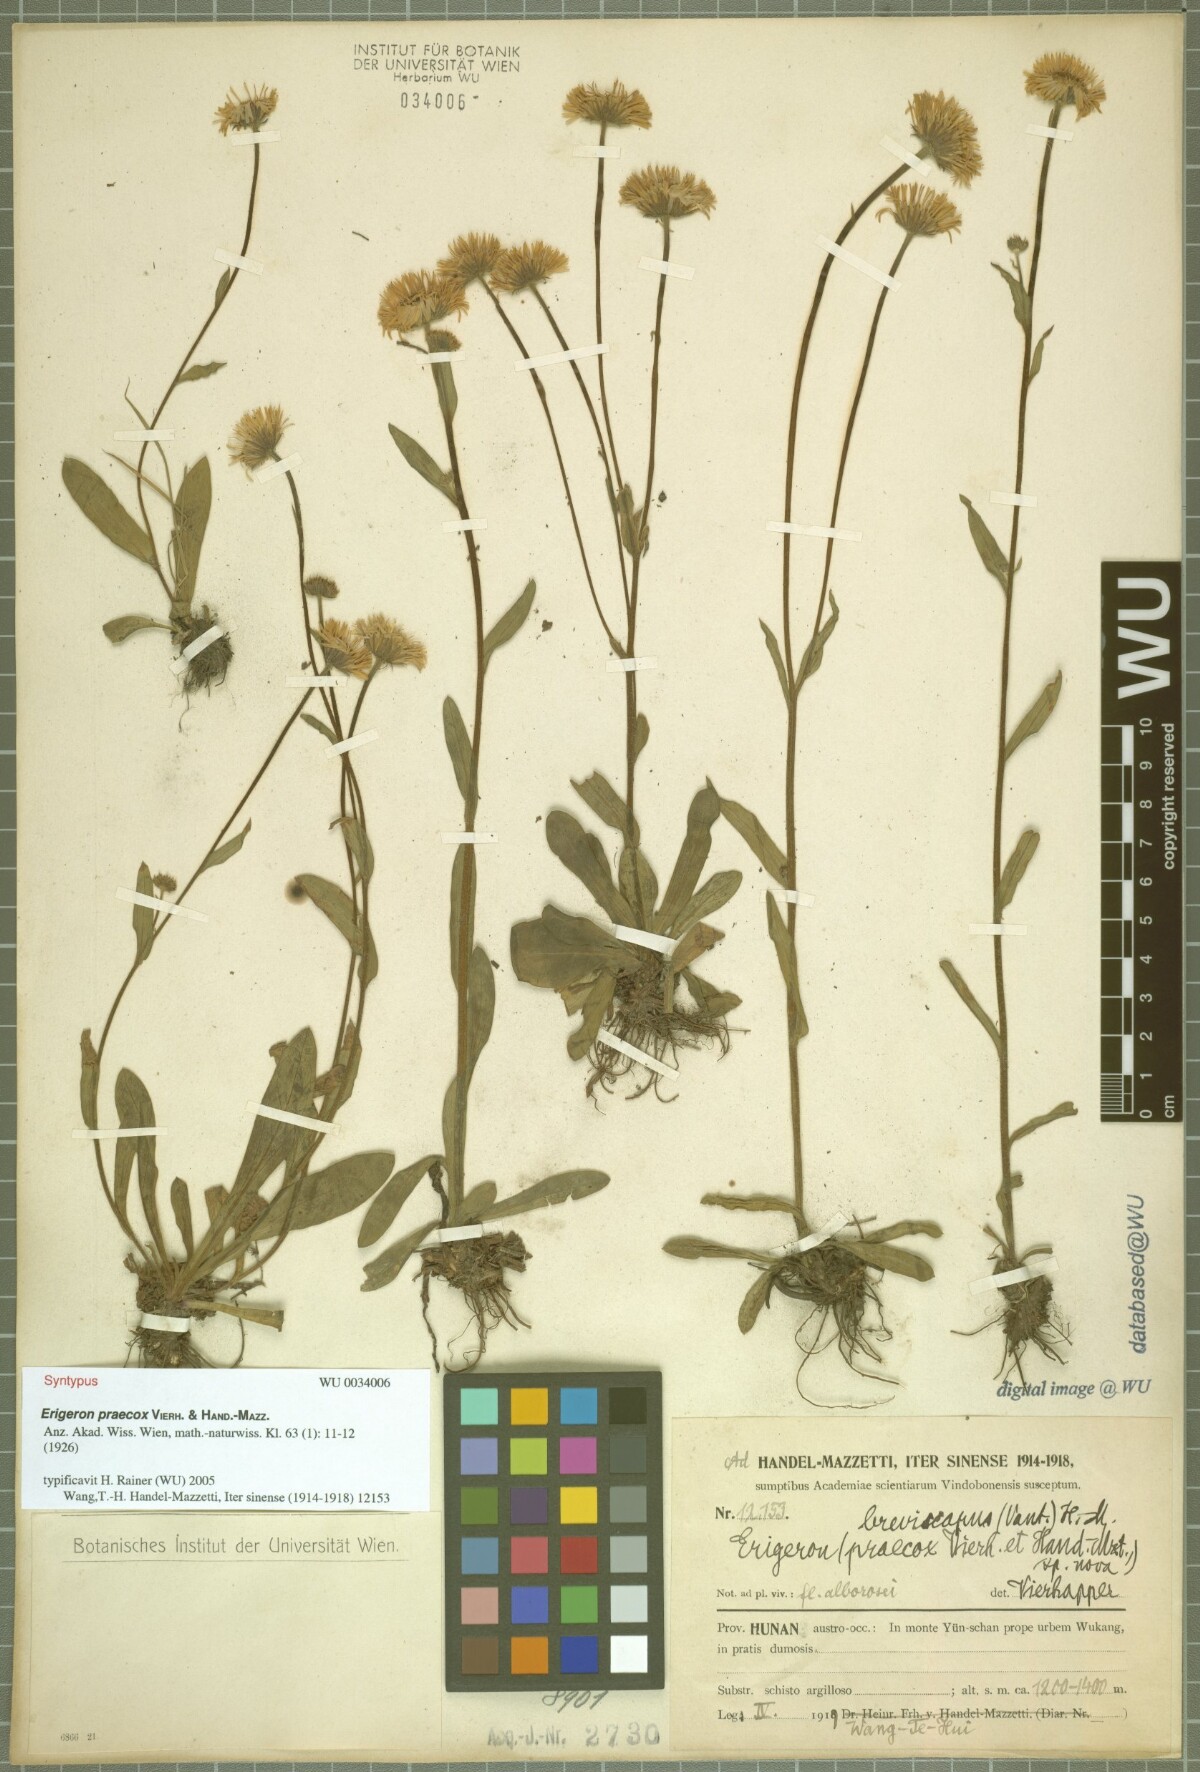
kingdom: Plantae
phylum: Tracheophyta
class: Magnoliopsida
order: Asterales
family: Asteraceae
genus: Erigeron
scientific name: Erigeron breviscapus
